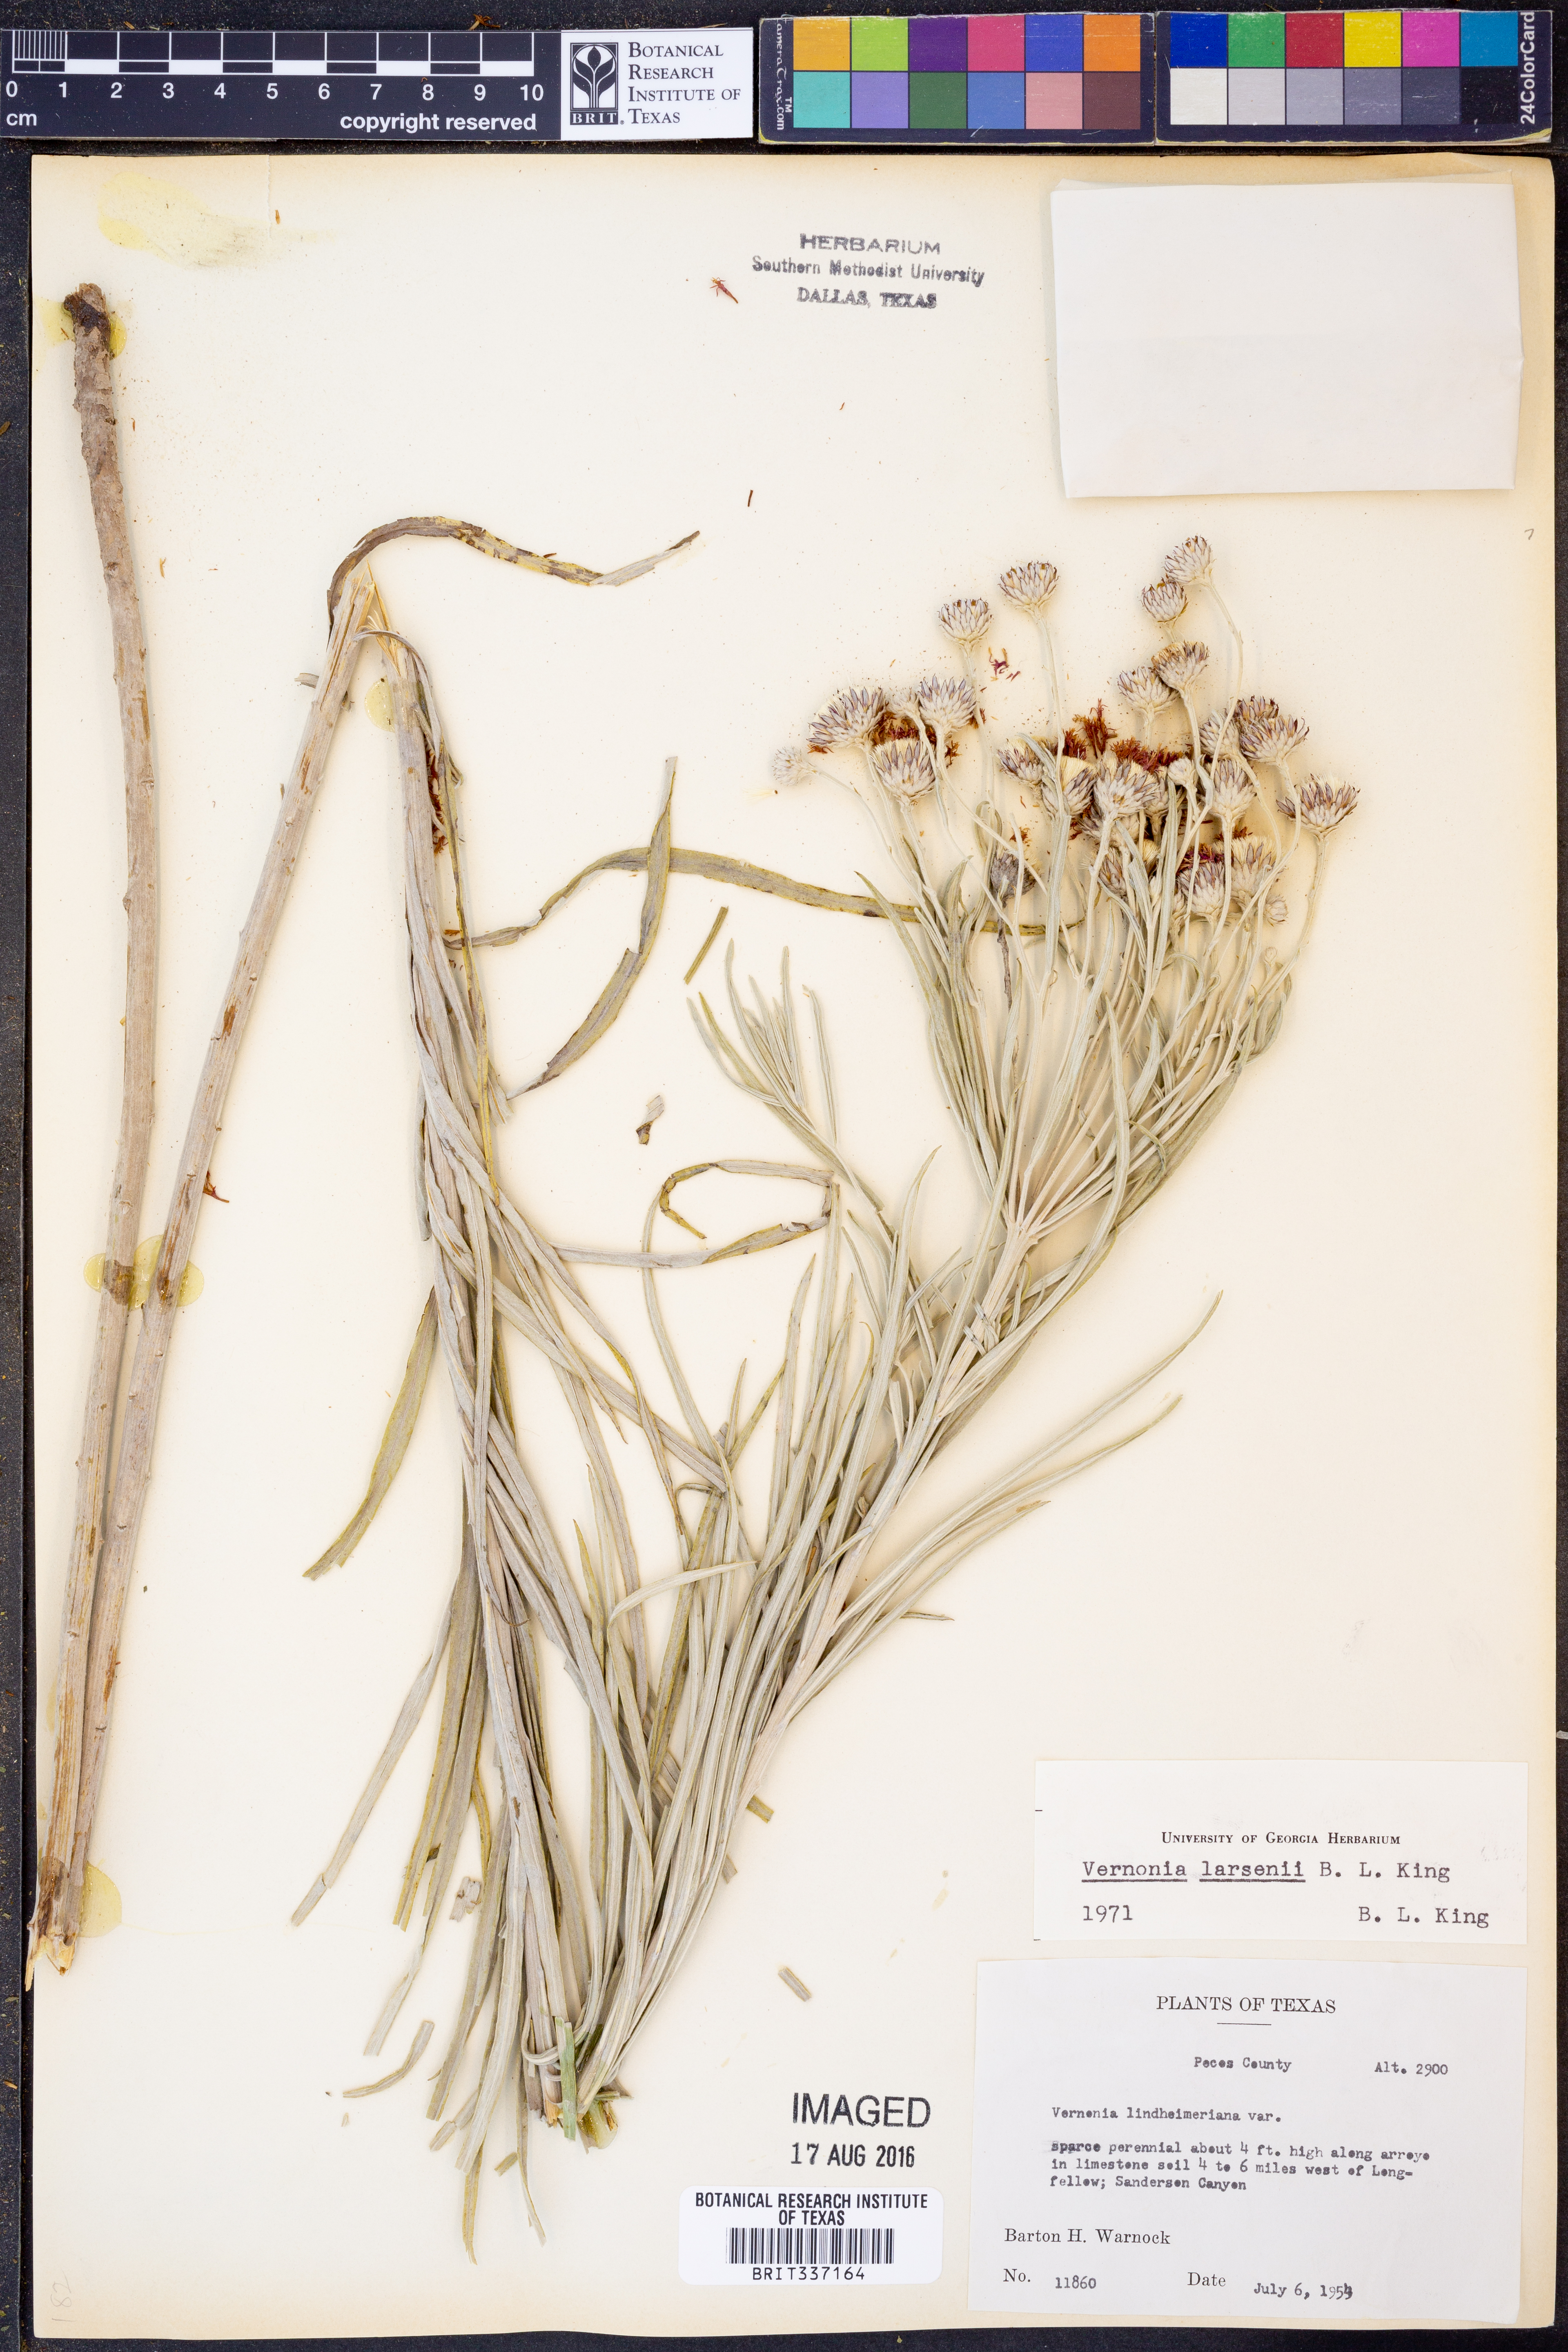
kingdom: Plantae
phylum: Tracheophyta
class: Magnoliopsida
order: Asterales
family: Asteraceae
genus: Vernonia
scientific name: Vernonia larsenii
